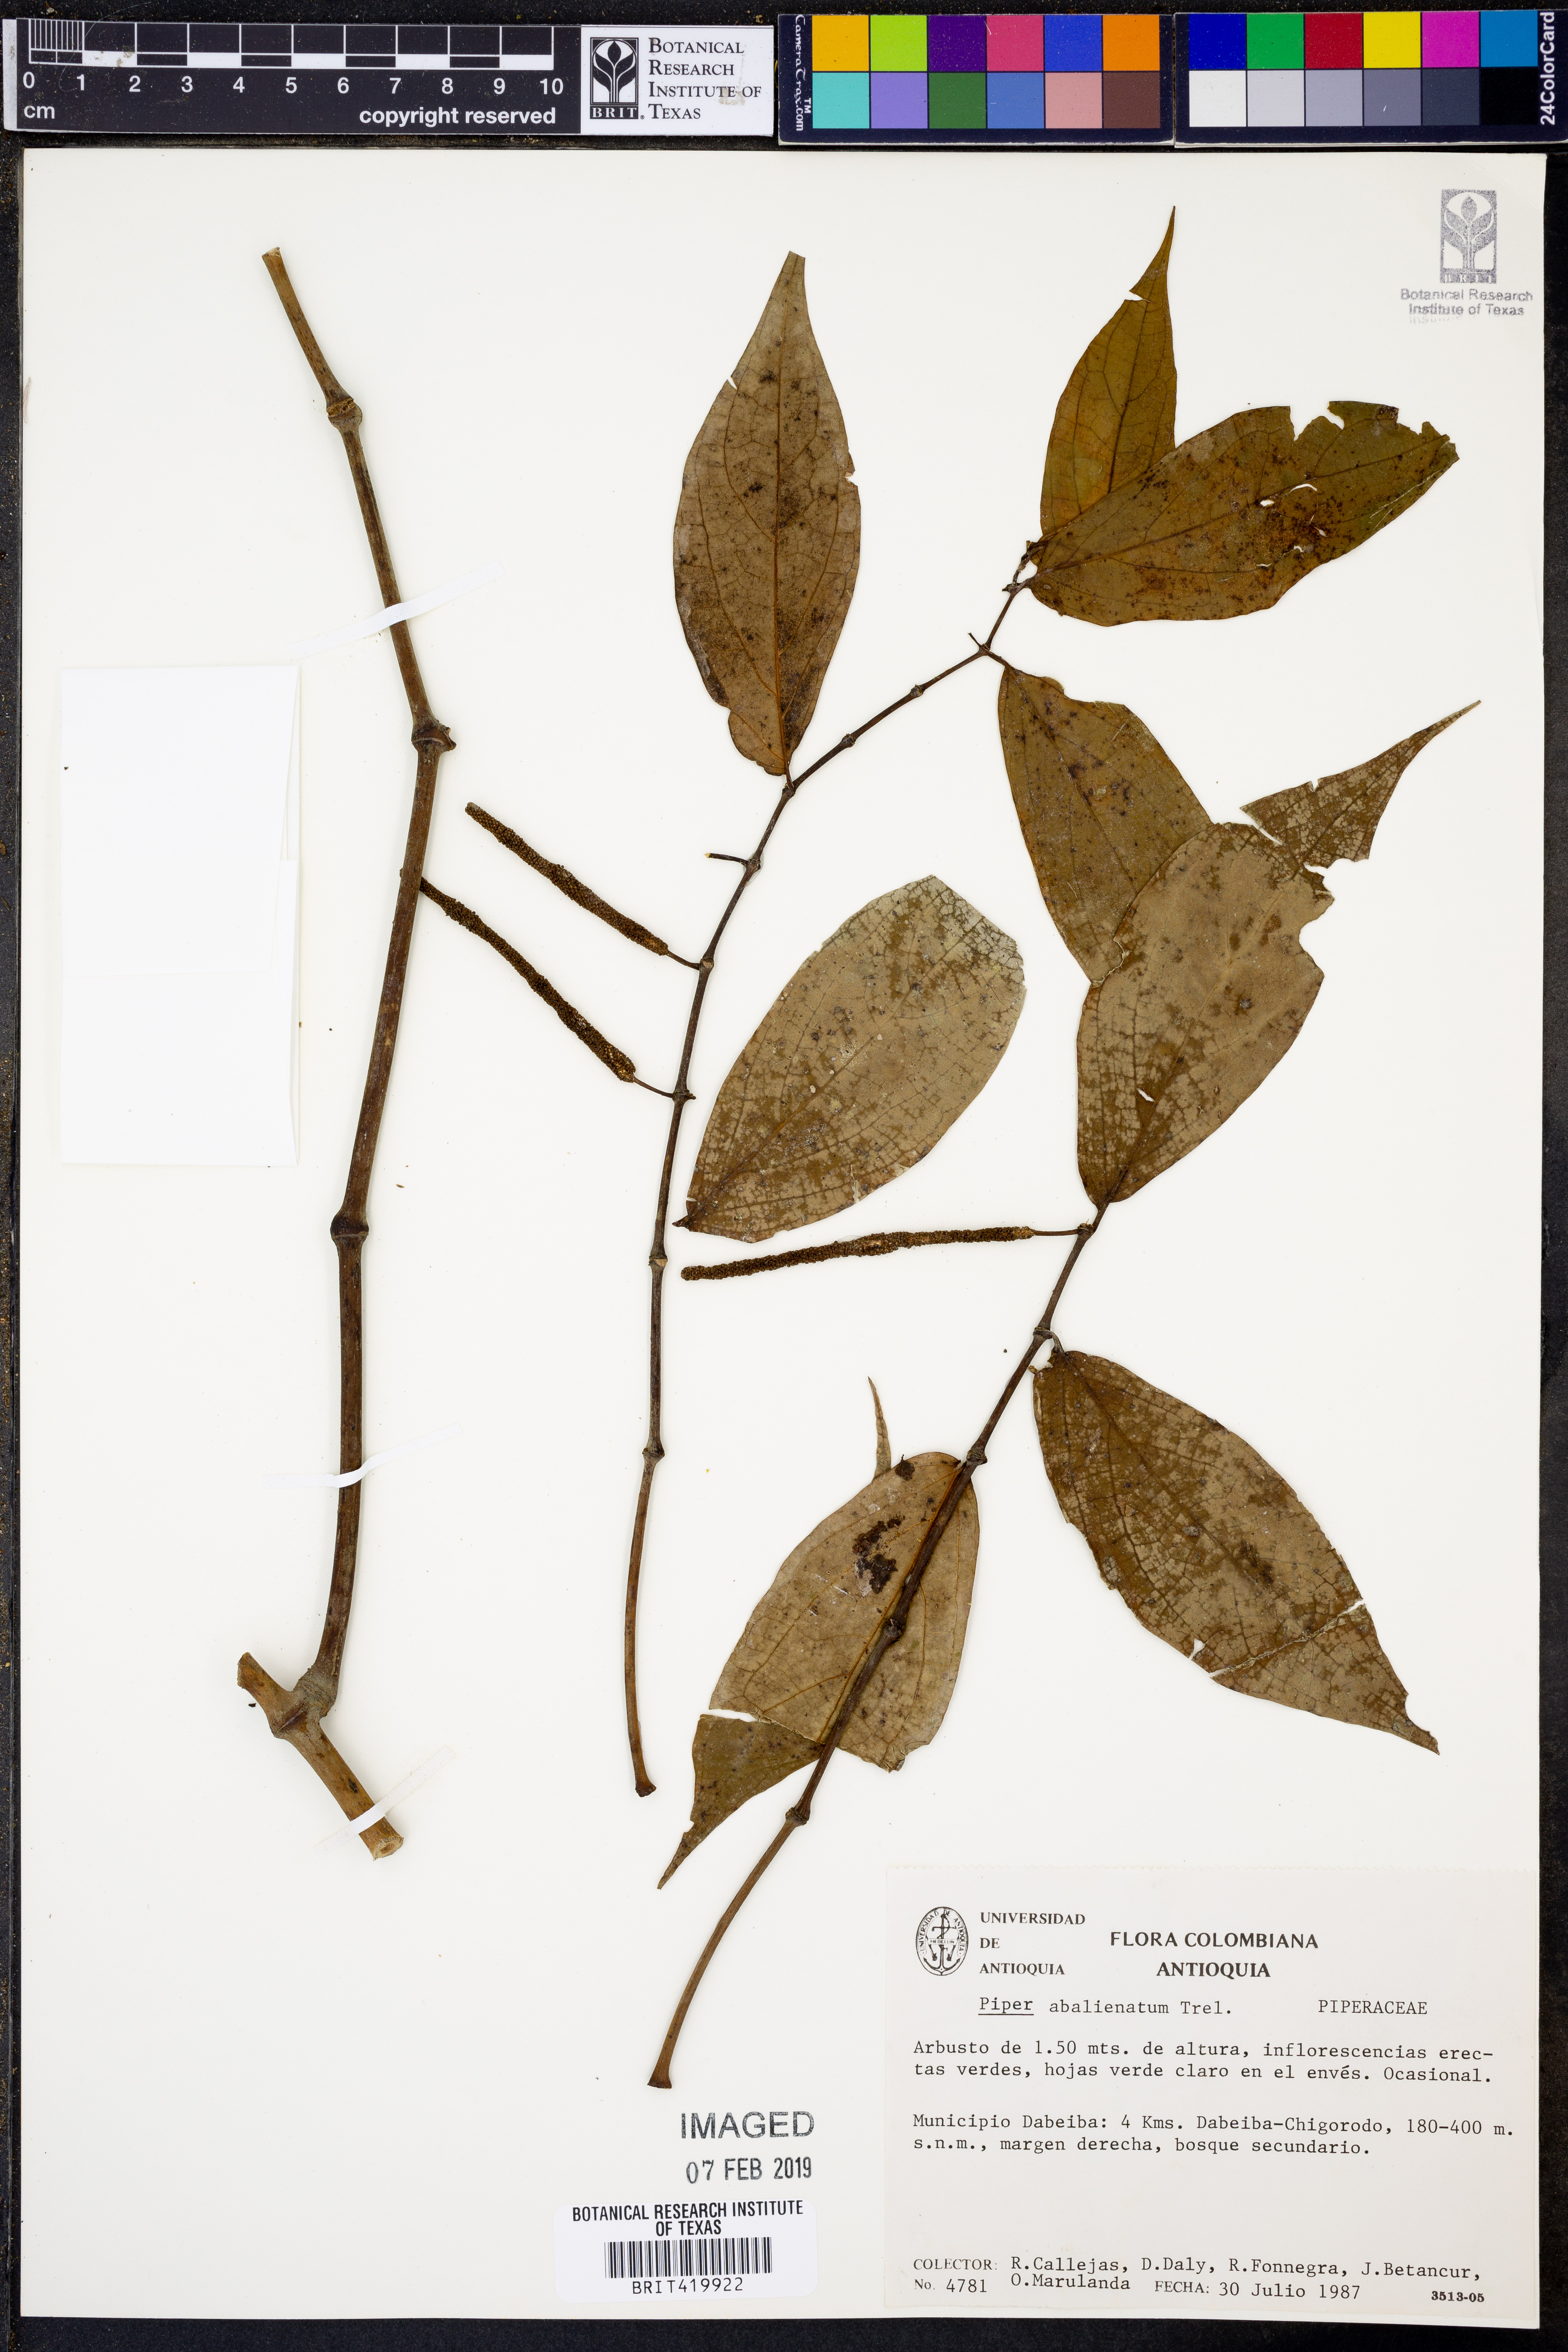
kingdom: Plantae
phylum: Tracheophyta
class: Magnoliopsida
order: Piperales
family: Piperaceae
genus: Piper
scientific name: Piper abalienatum
